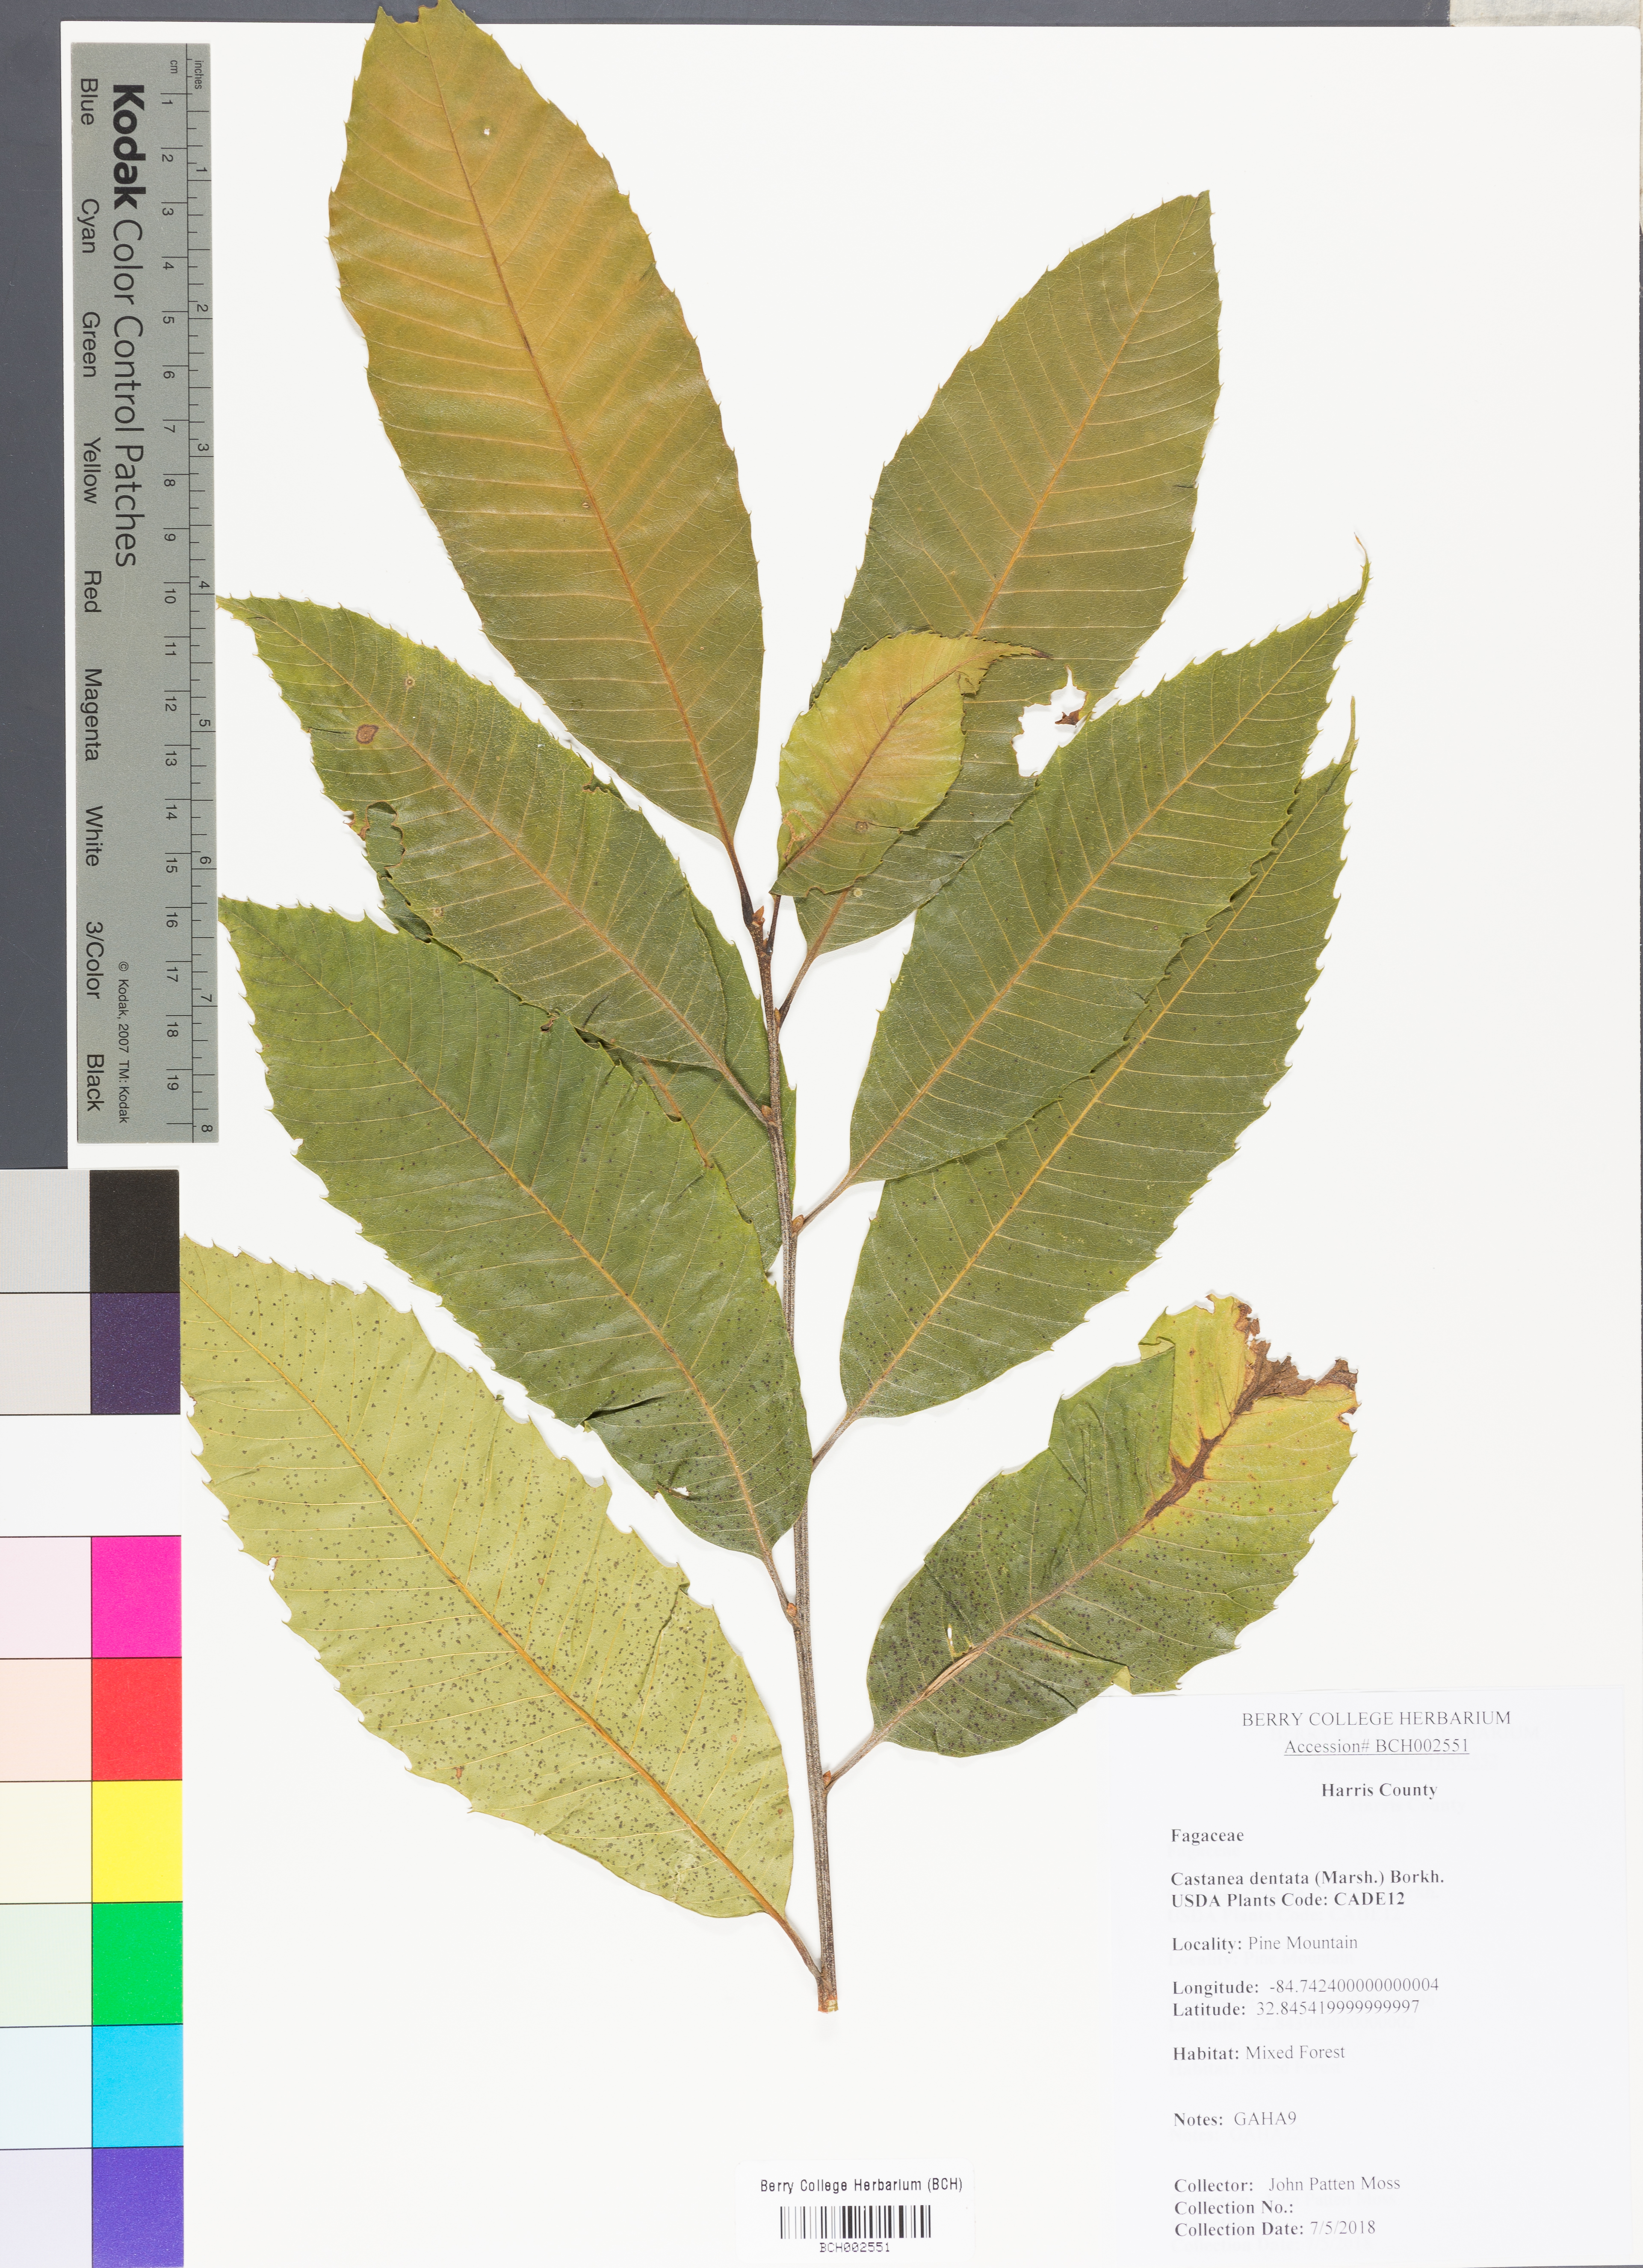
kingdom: Plantae
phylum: Tracheophyta
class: Magnoliopsida
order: Fagales
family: Fagaceae
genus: Castanea
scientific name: Castanea dentata
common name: American chestnut
